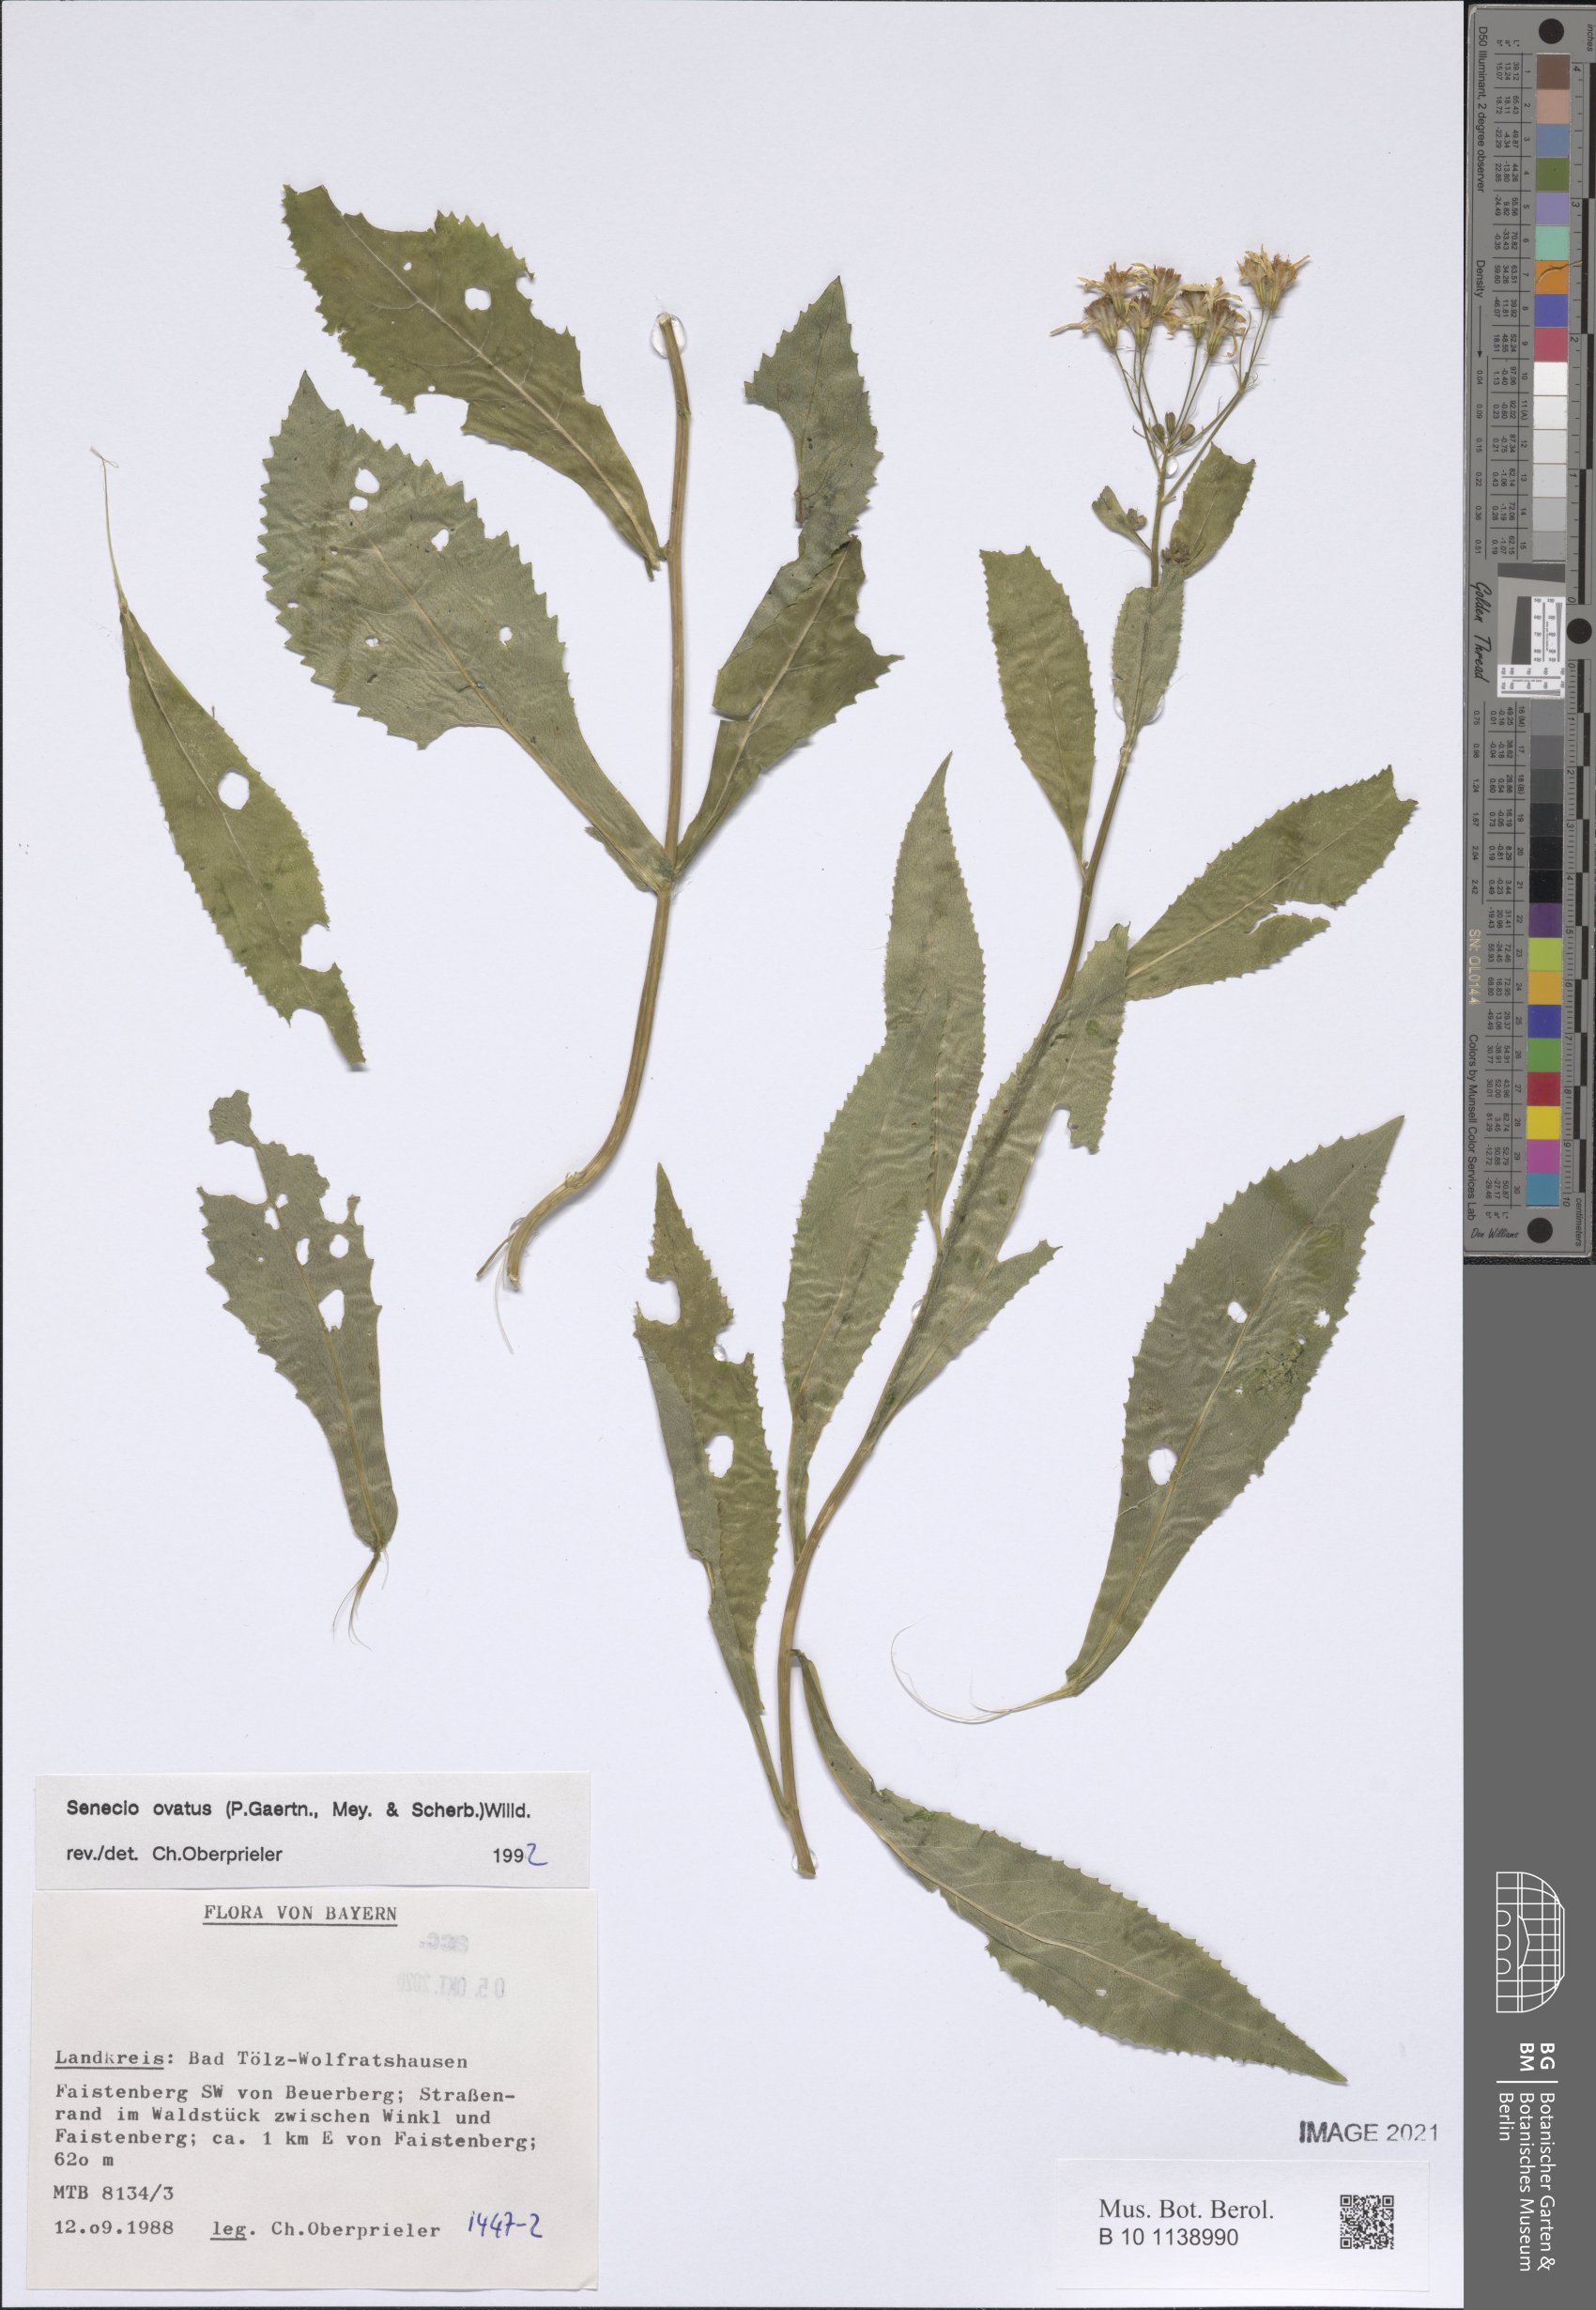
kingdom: Plantae
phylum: Tracheophyta
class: Magnoliopsida
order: Asterales
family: Asteraceae
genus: Senecio
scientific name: Senecio ovatus
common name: Wood ragwort
